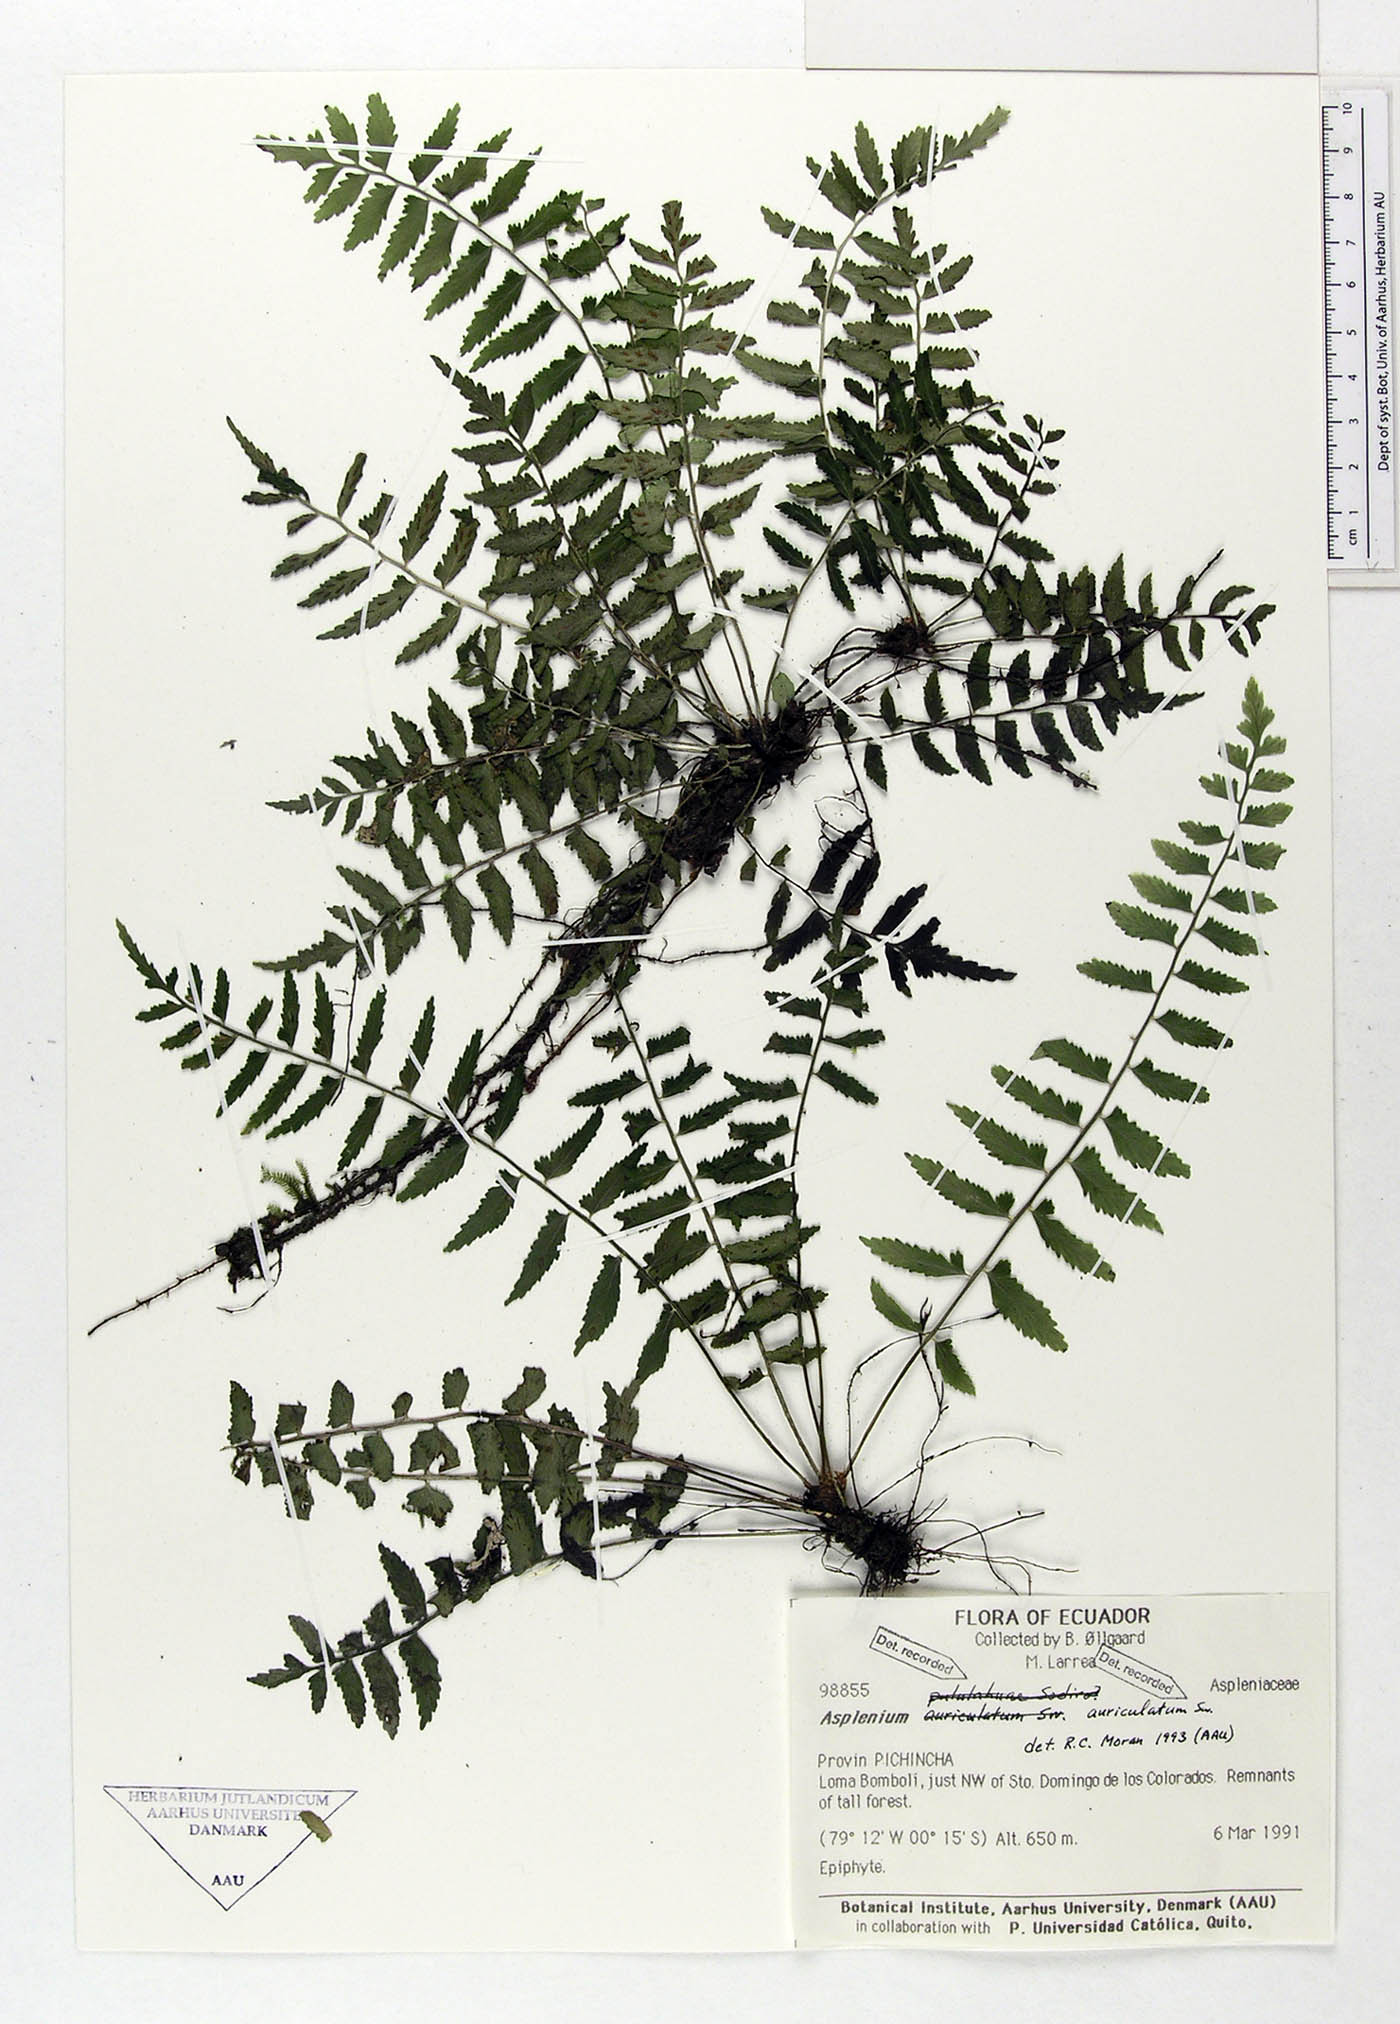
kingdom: Plantae
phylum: Tracheophyta
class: Polypodiopsida
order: Polypodiales
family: Aspleniaceae
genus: Asplenium
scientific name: Asplenium auriculatum
